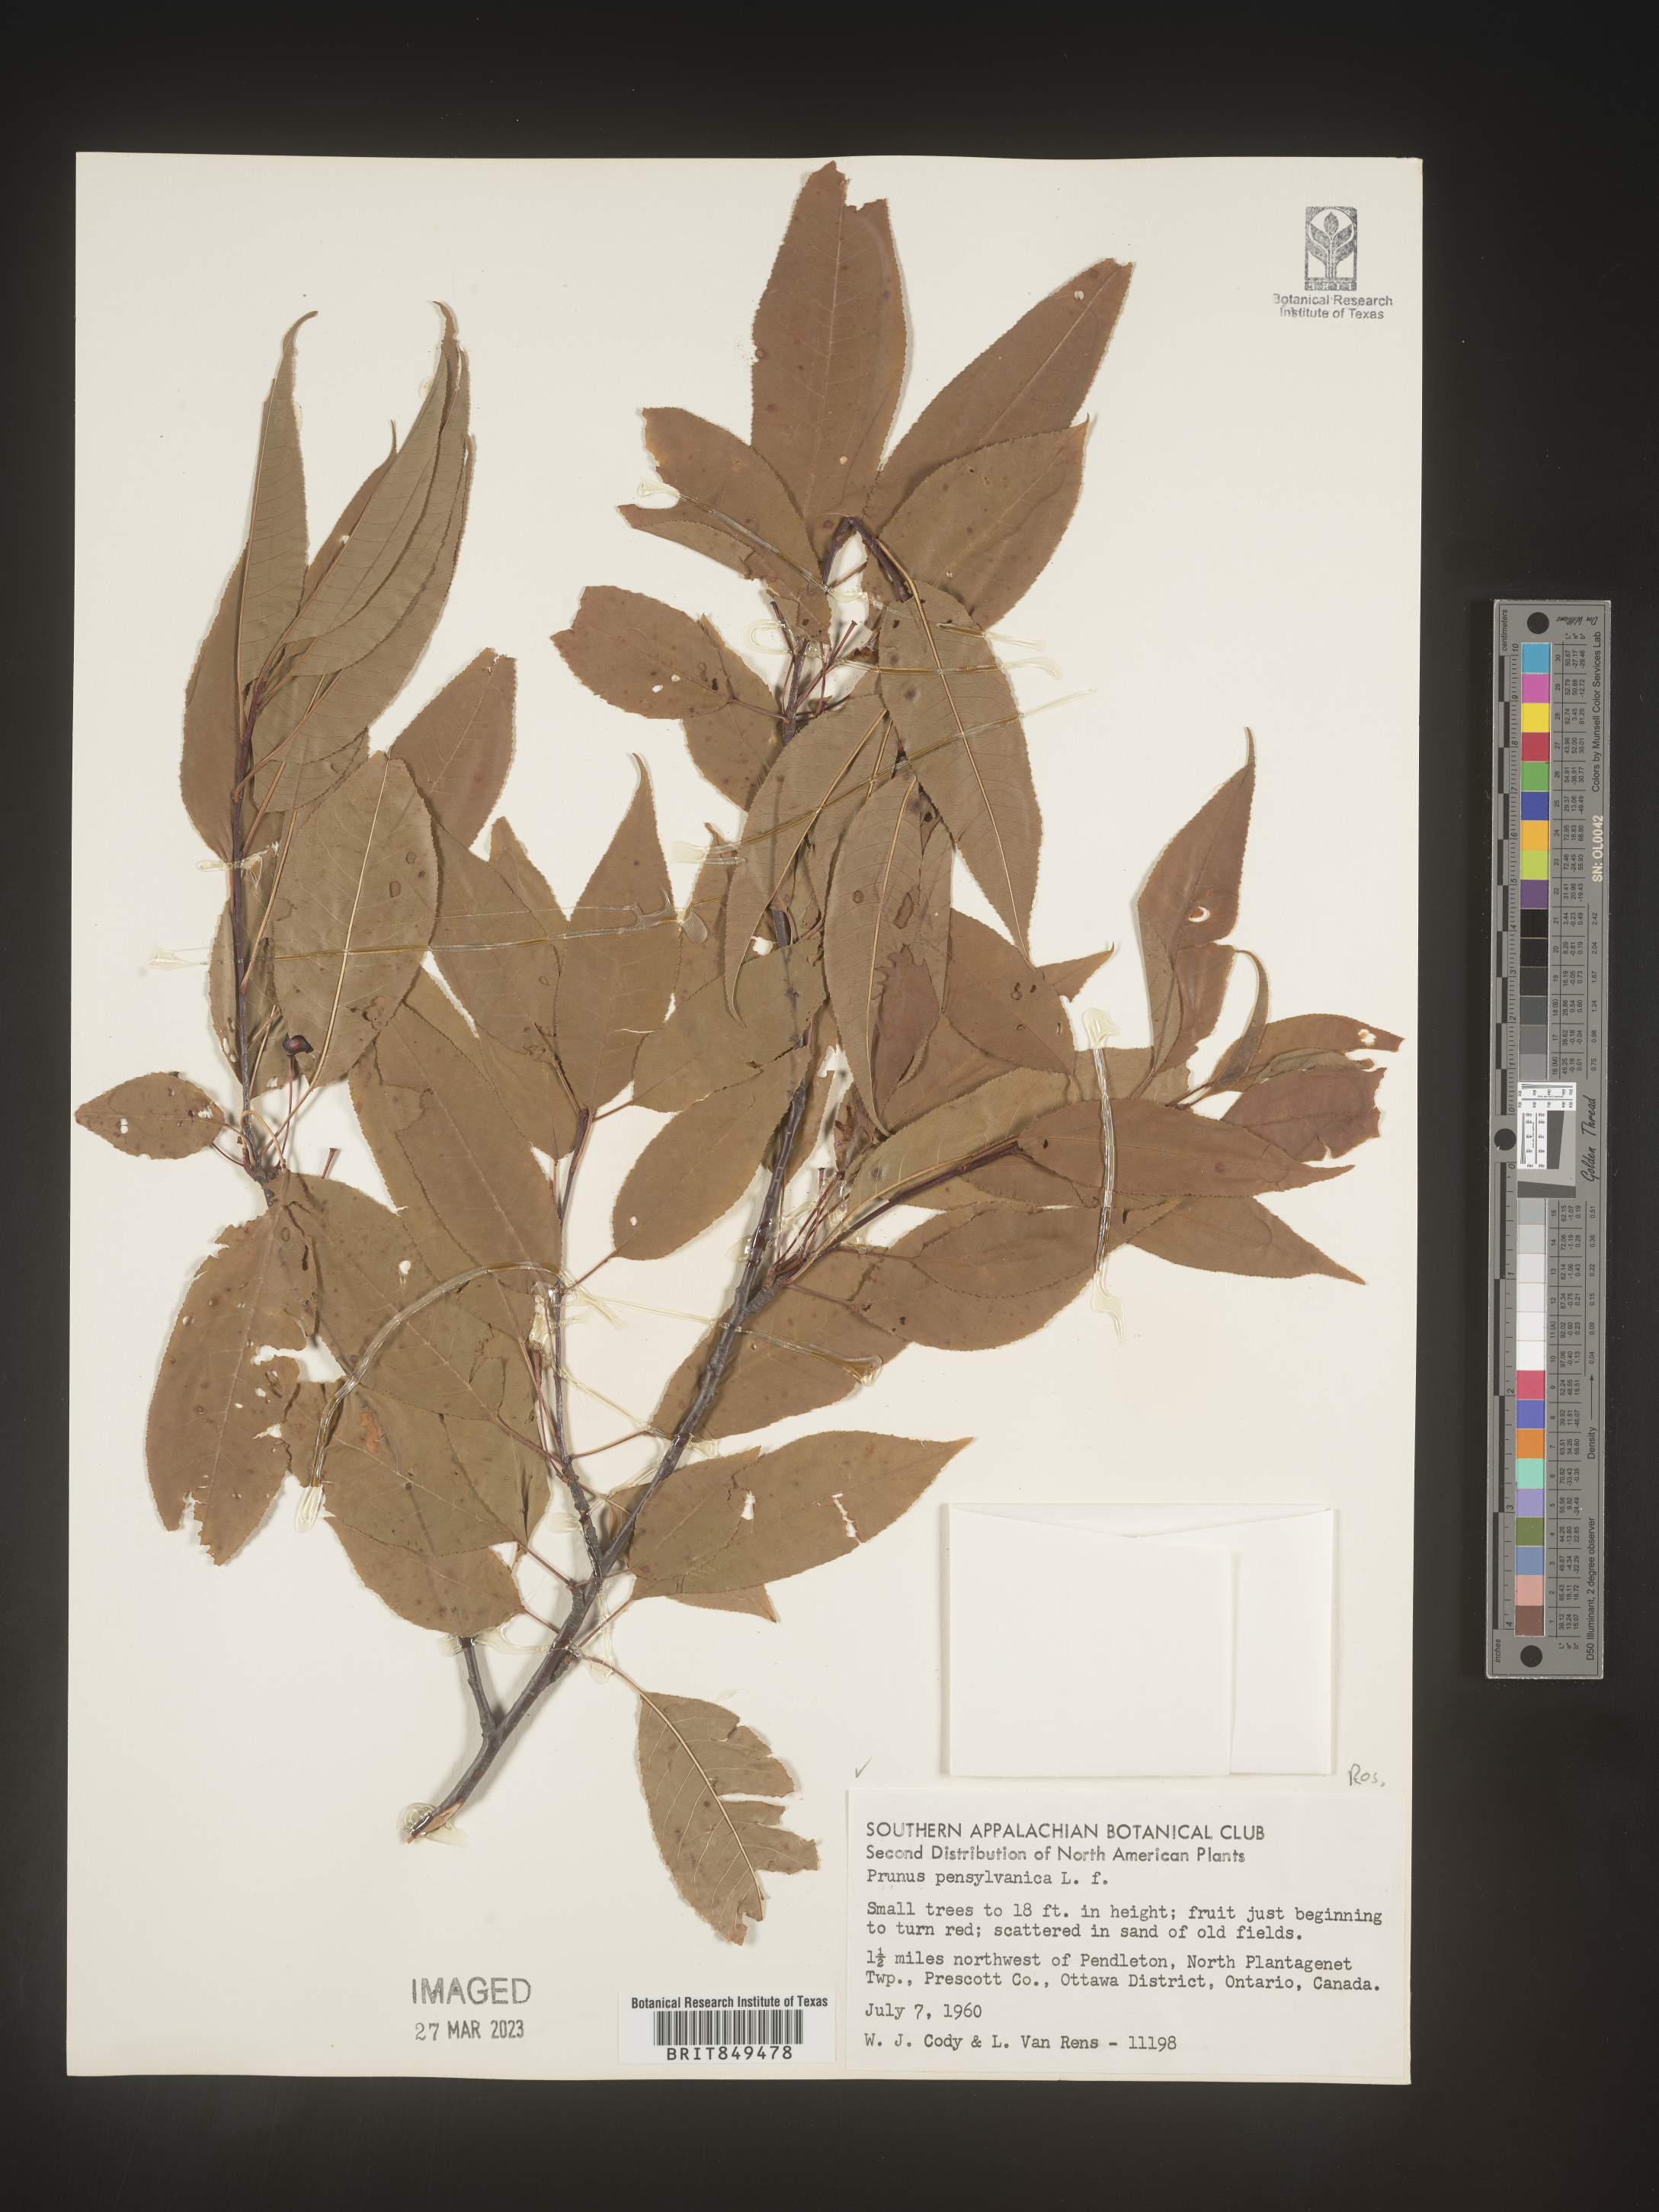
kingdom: Plantae
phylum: Tracheophyta
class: Magnoliopsida
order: Rosales
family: Rosaceae
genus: Prunus
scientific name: Prunus pensylvanica
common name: Pin cherry
